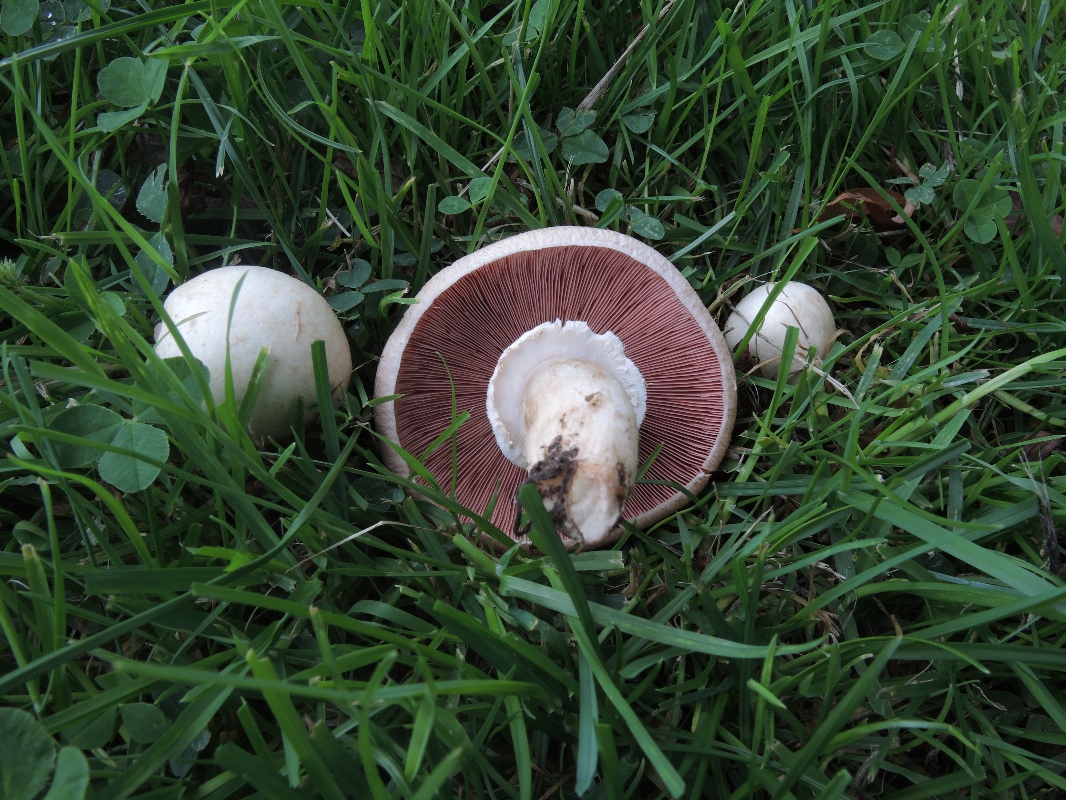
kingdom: Fungi
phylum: Basidiomycota
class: Agaricomycetes
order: Agaricales
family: Agaricaceae
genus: Agaricus
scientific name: Agaricus campestris
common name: mark-champignon
